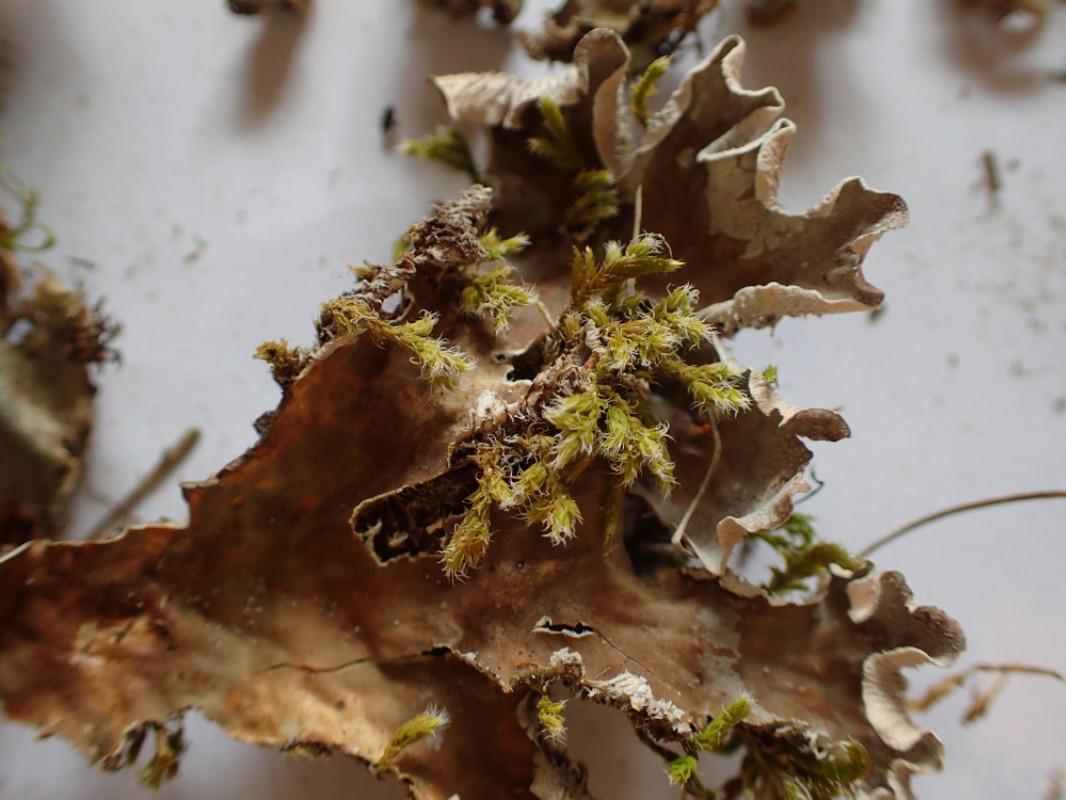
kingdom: Fungi
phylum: Ascomycota
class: Lecanoromycetes
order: Peltigerales
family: Peltigeraceae
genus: Peltigera
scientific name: Peltigera canina
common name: hunde-skjoldlav
